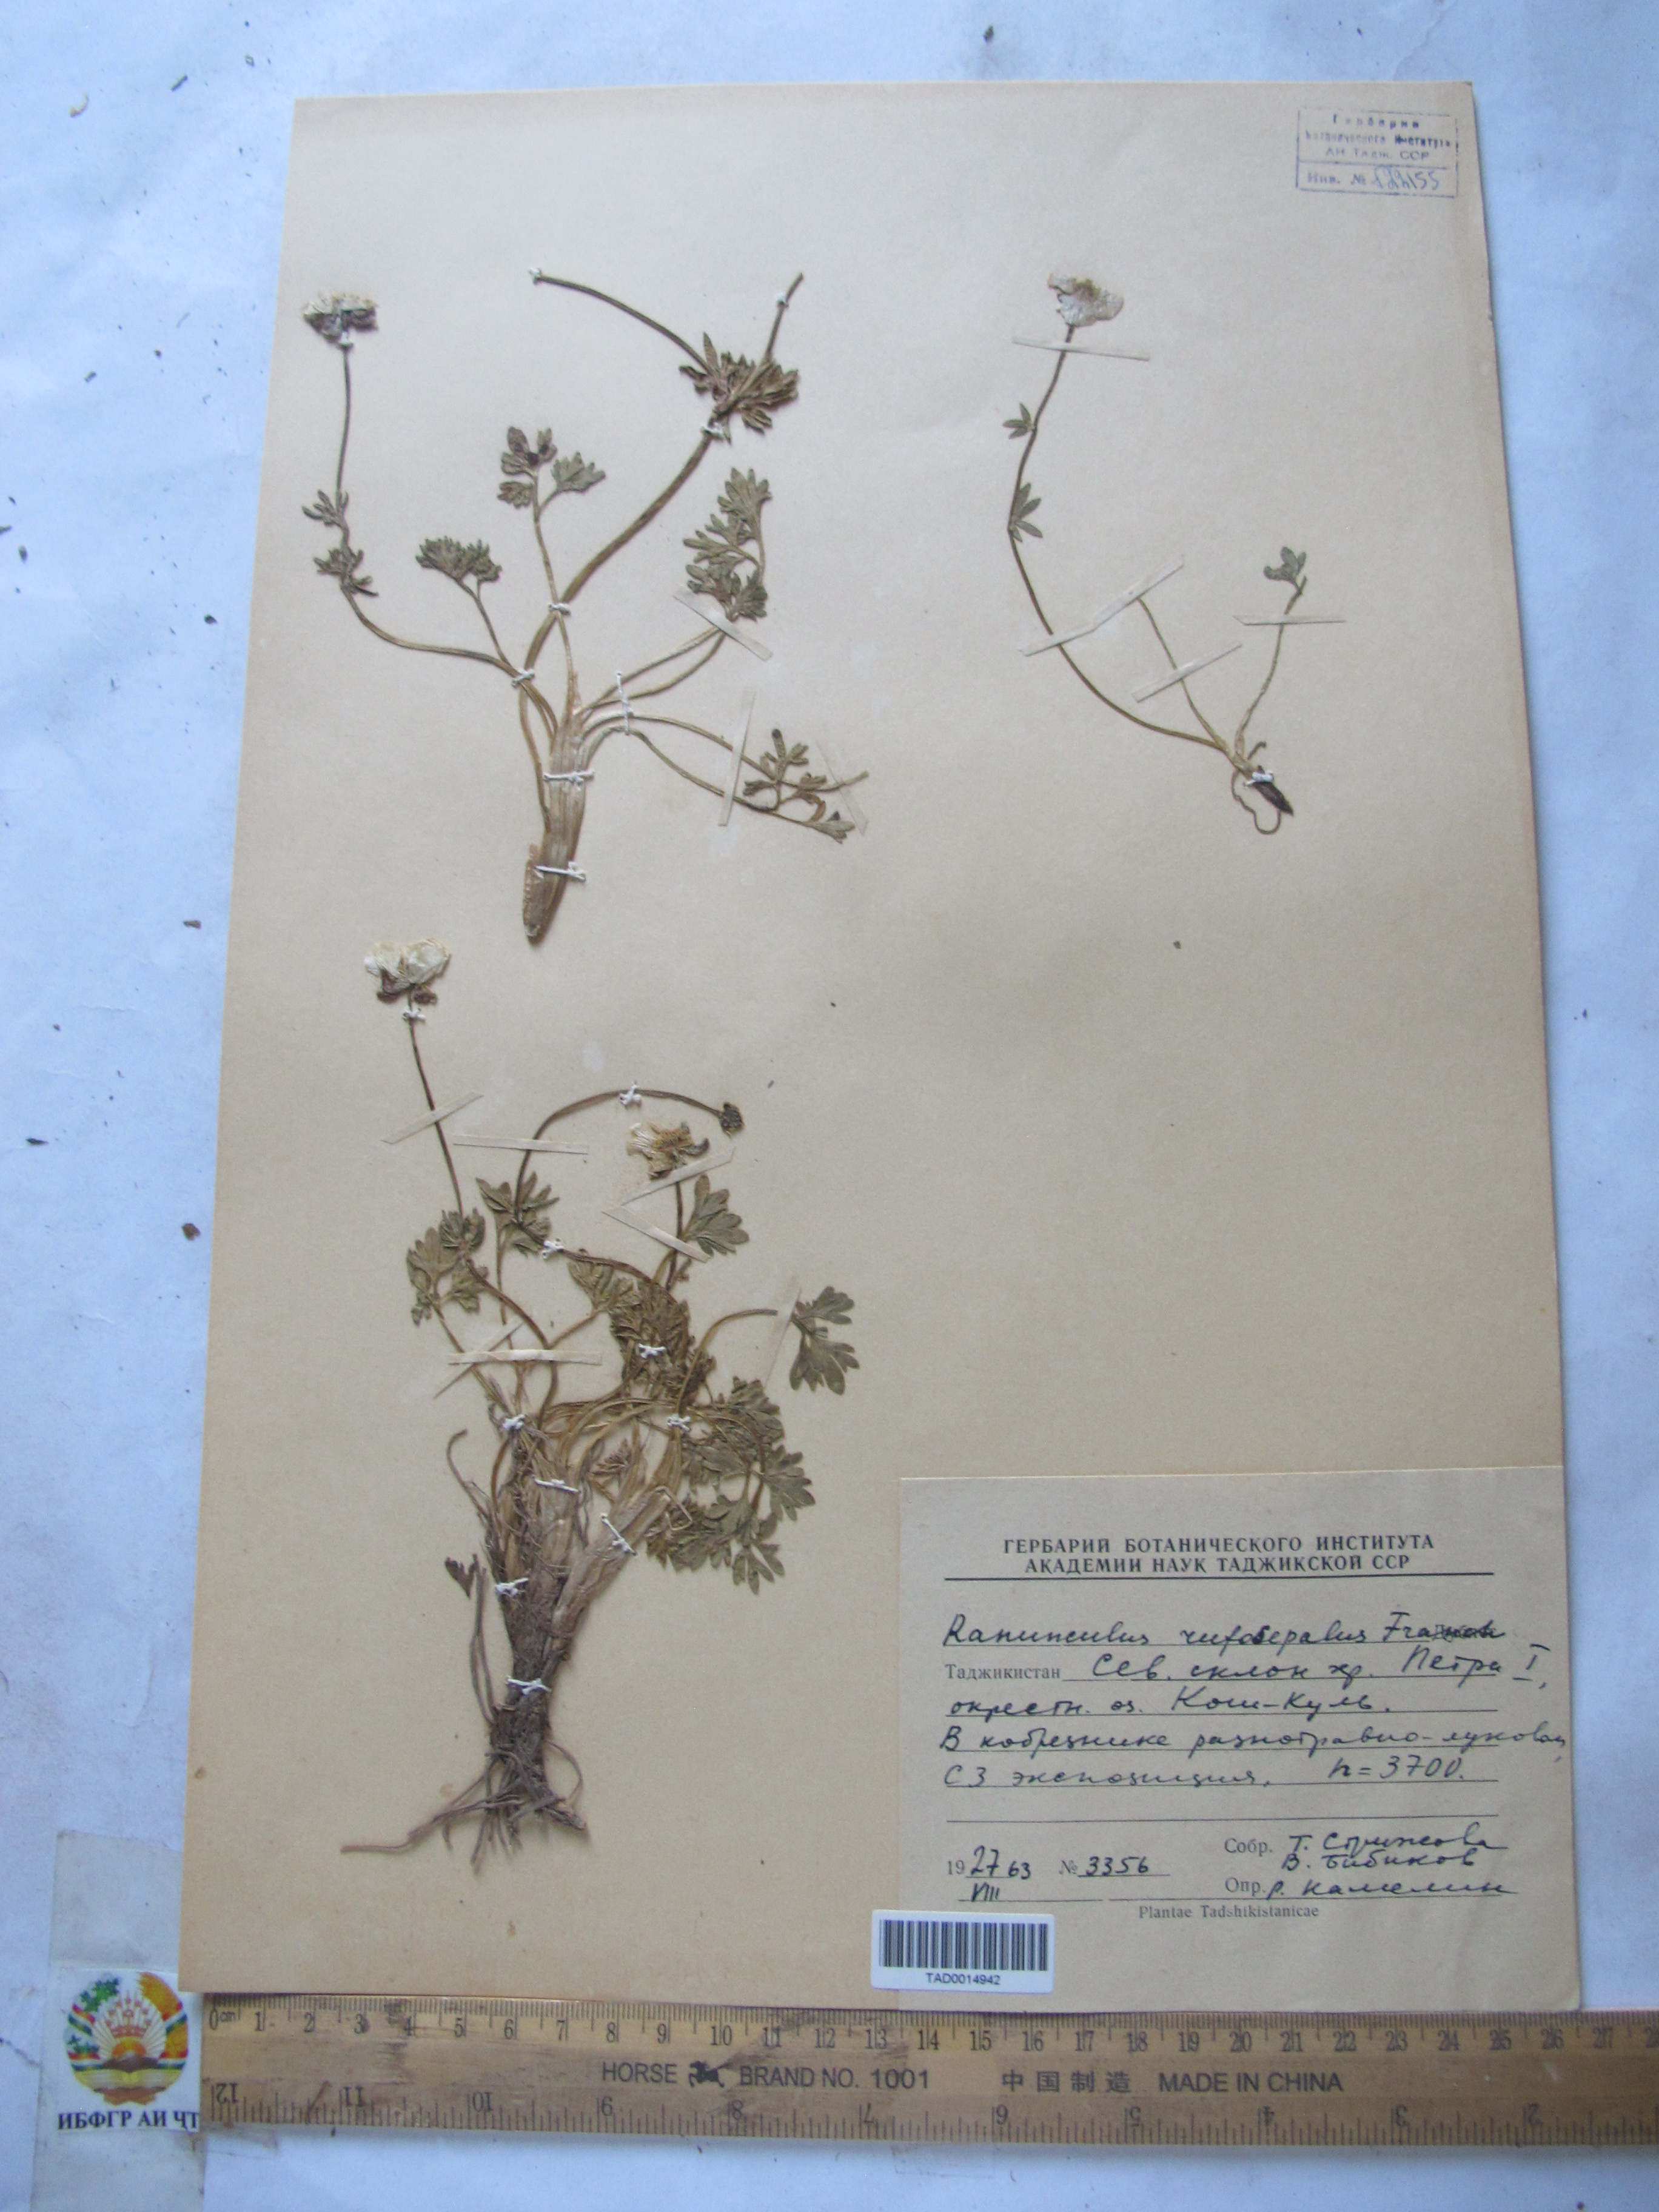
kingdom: Plantae
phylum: Tracheophyta
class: Magnoliopsida
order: Ranunculales
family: Ranunculaceae
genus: Ranunculus
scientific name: Ranunculus rufosepalus
